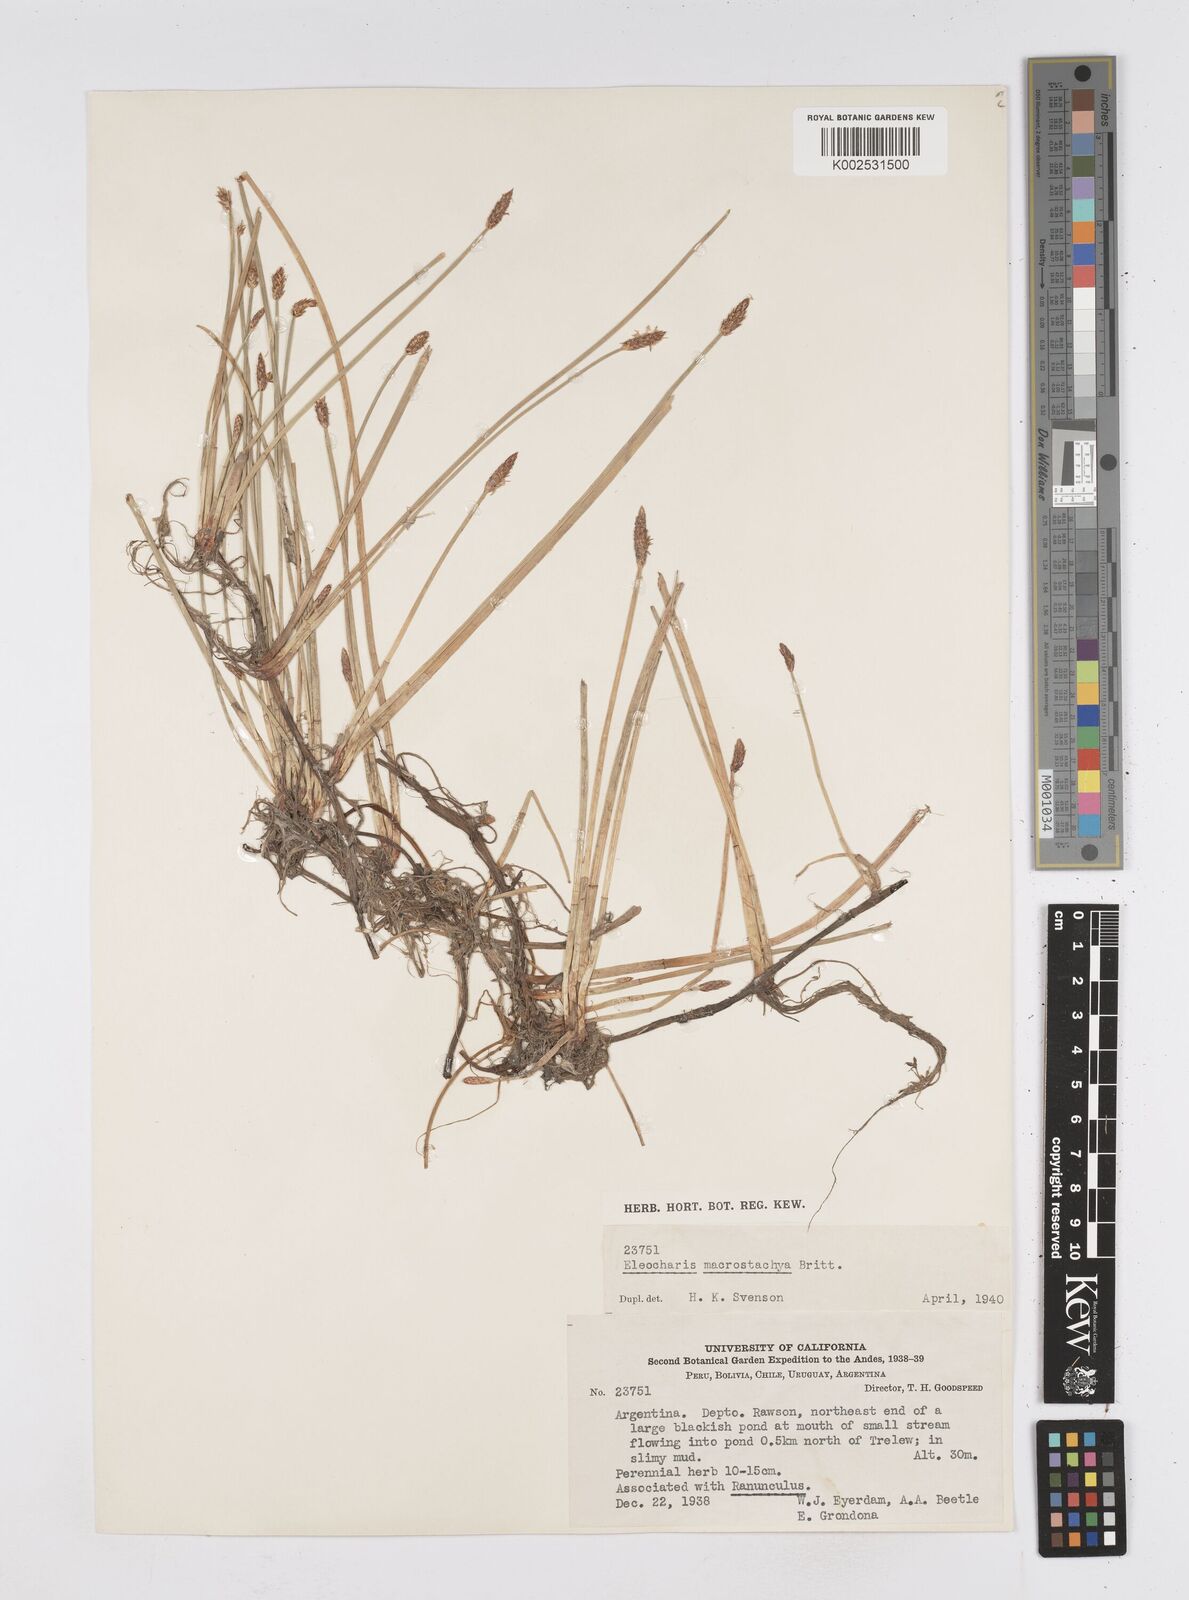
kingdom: Plantae
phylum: Tracheophyta
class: Liliopsida
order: Poales
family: Cyperaceae
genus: Eleocharis
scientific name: Eleocharis macrostachya
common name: Pale spikerush
